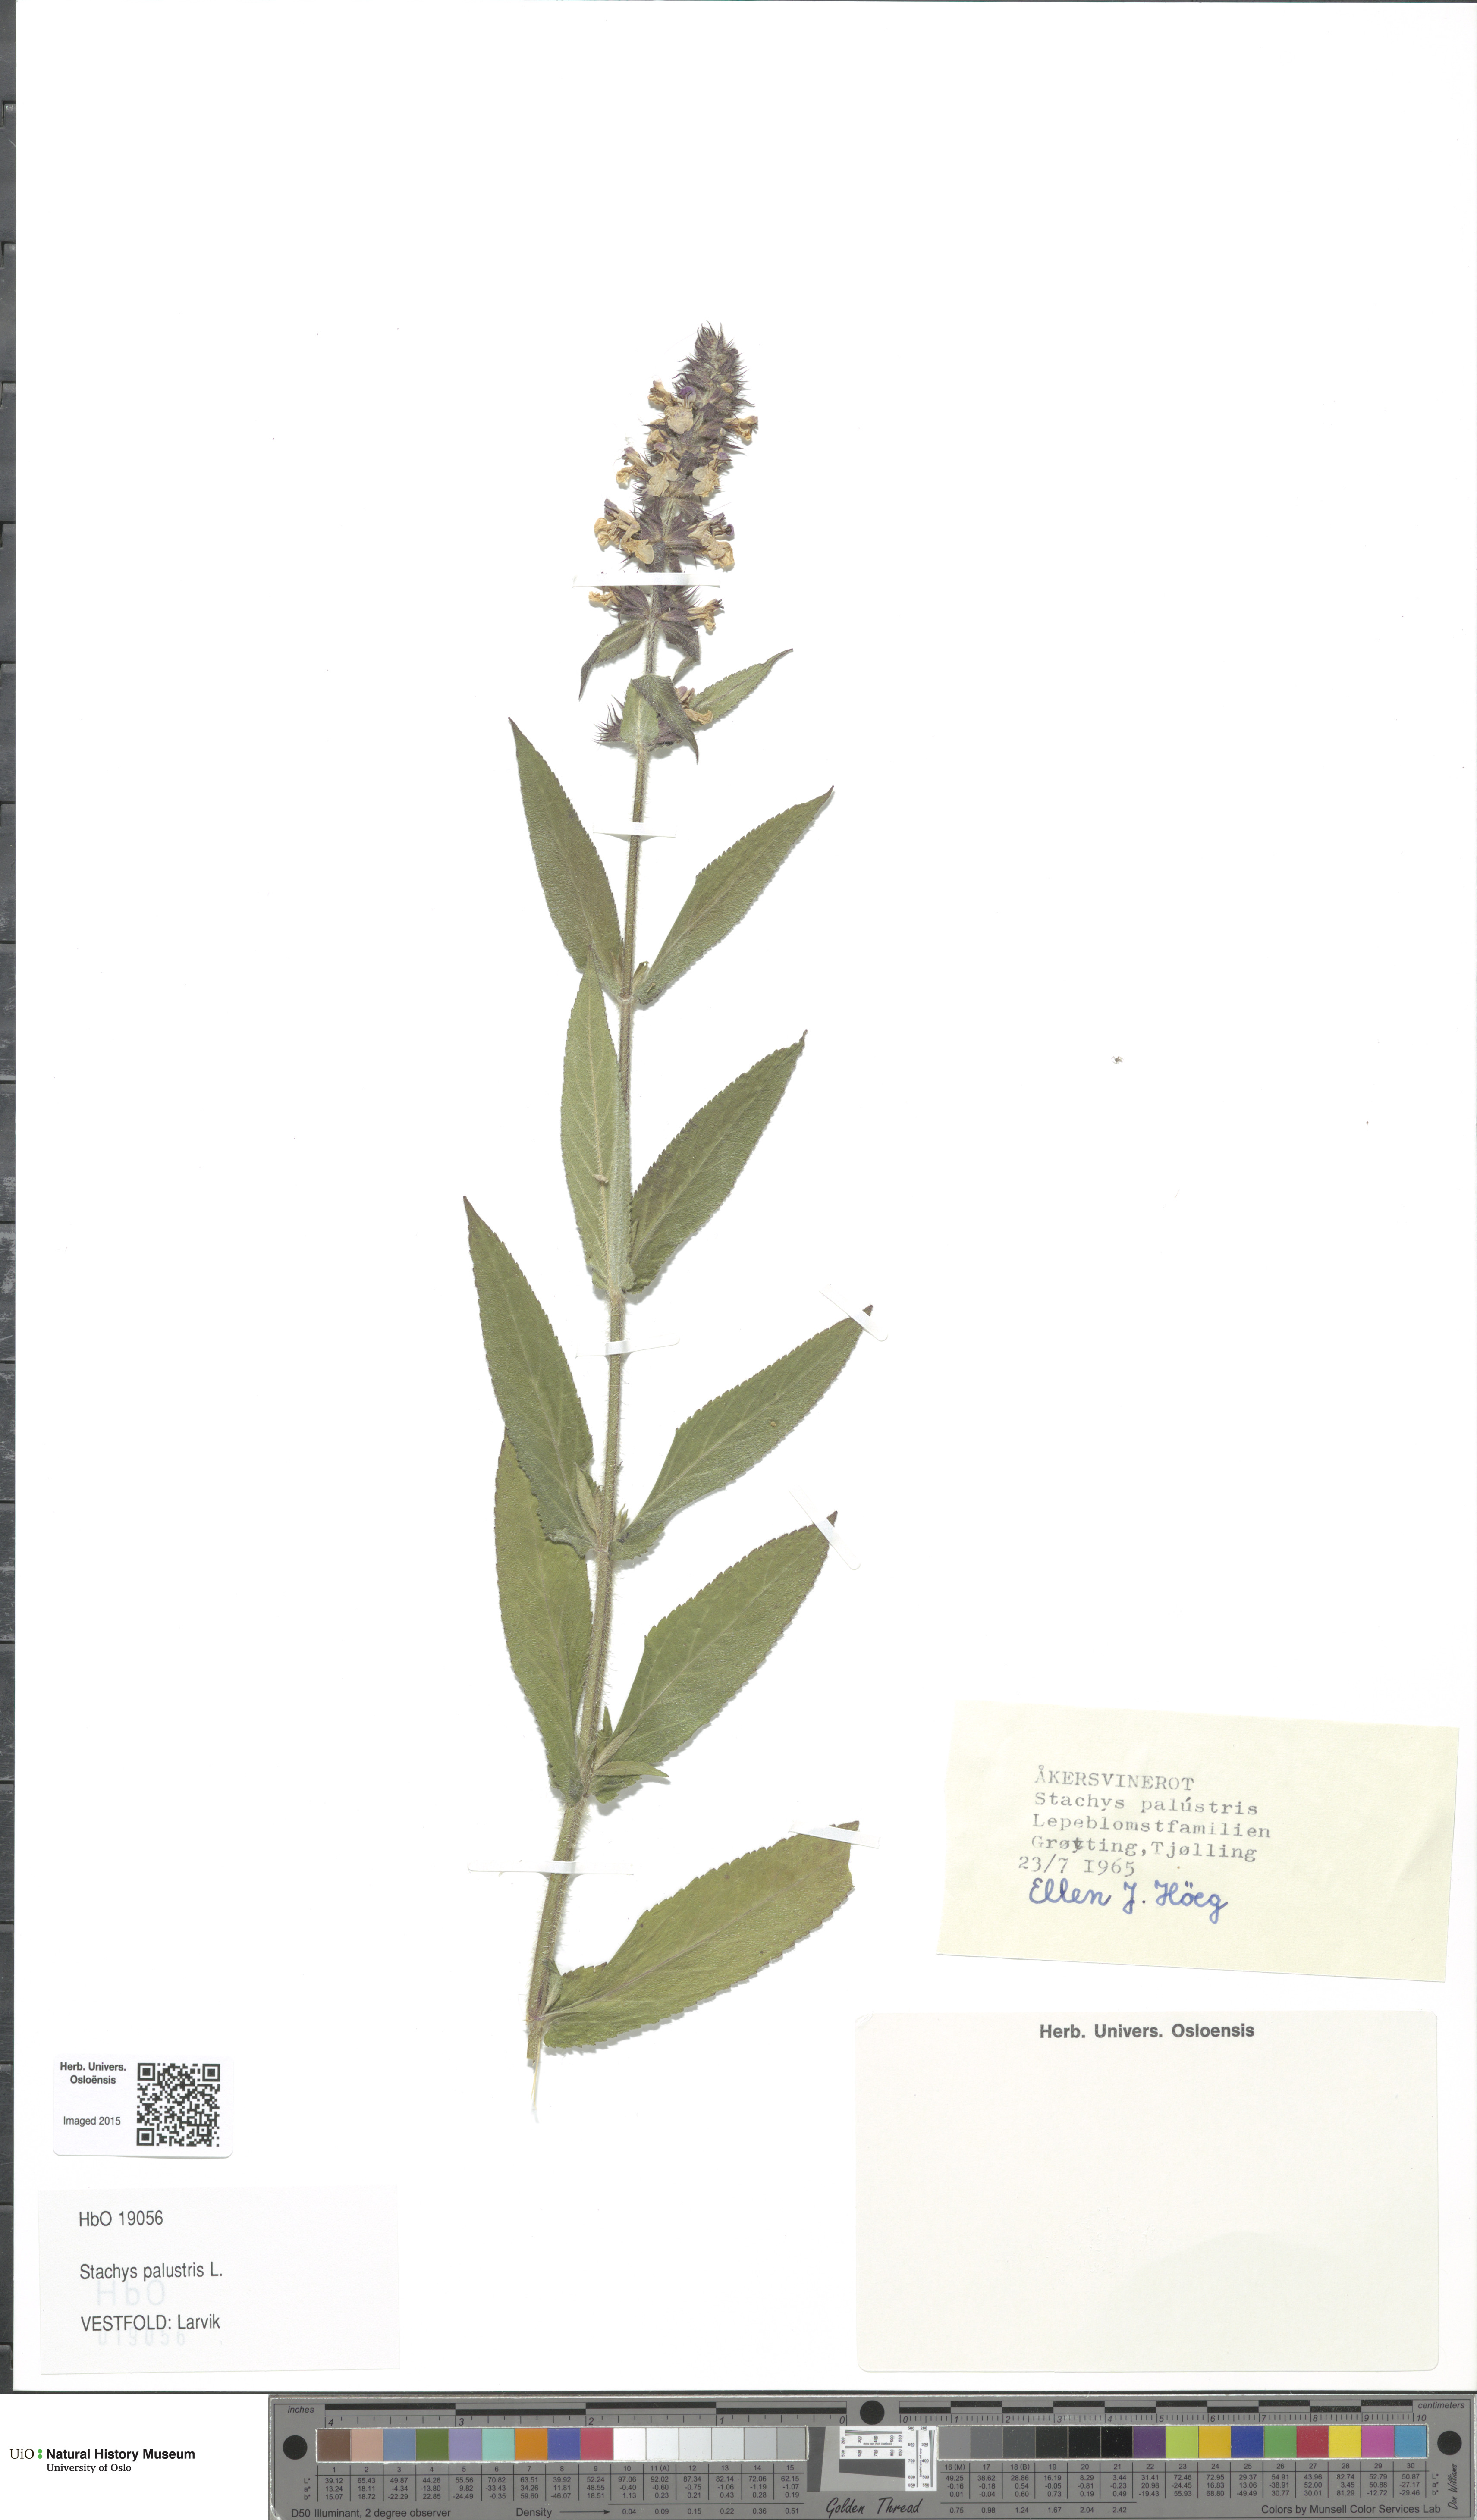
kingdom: Plantae
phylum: Tracheophyta
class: Magnoliopsida
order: Lamiales
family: Lamiaceae
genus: Stachys
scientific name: Stachys palustris
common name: Marsh woundwort
